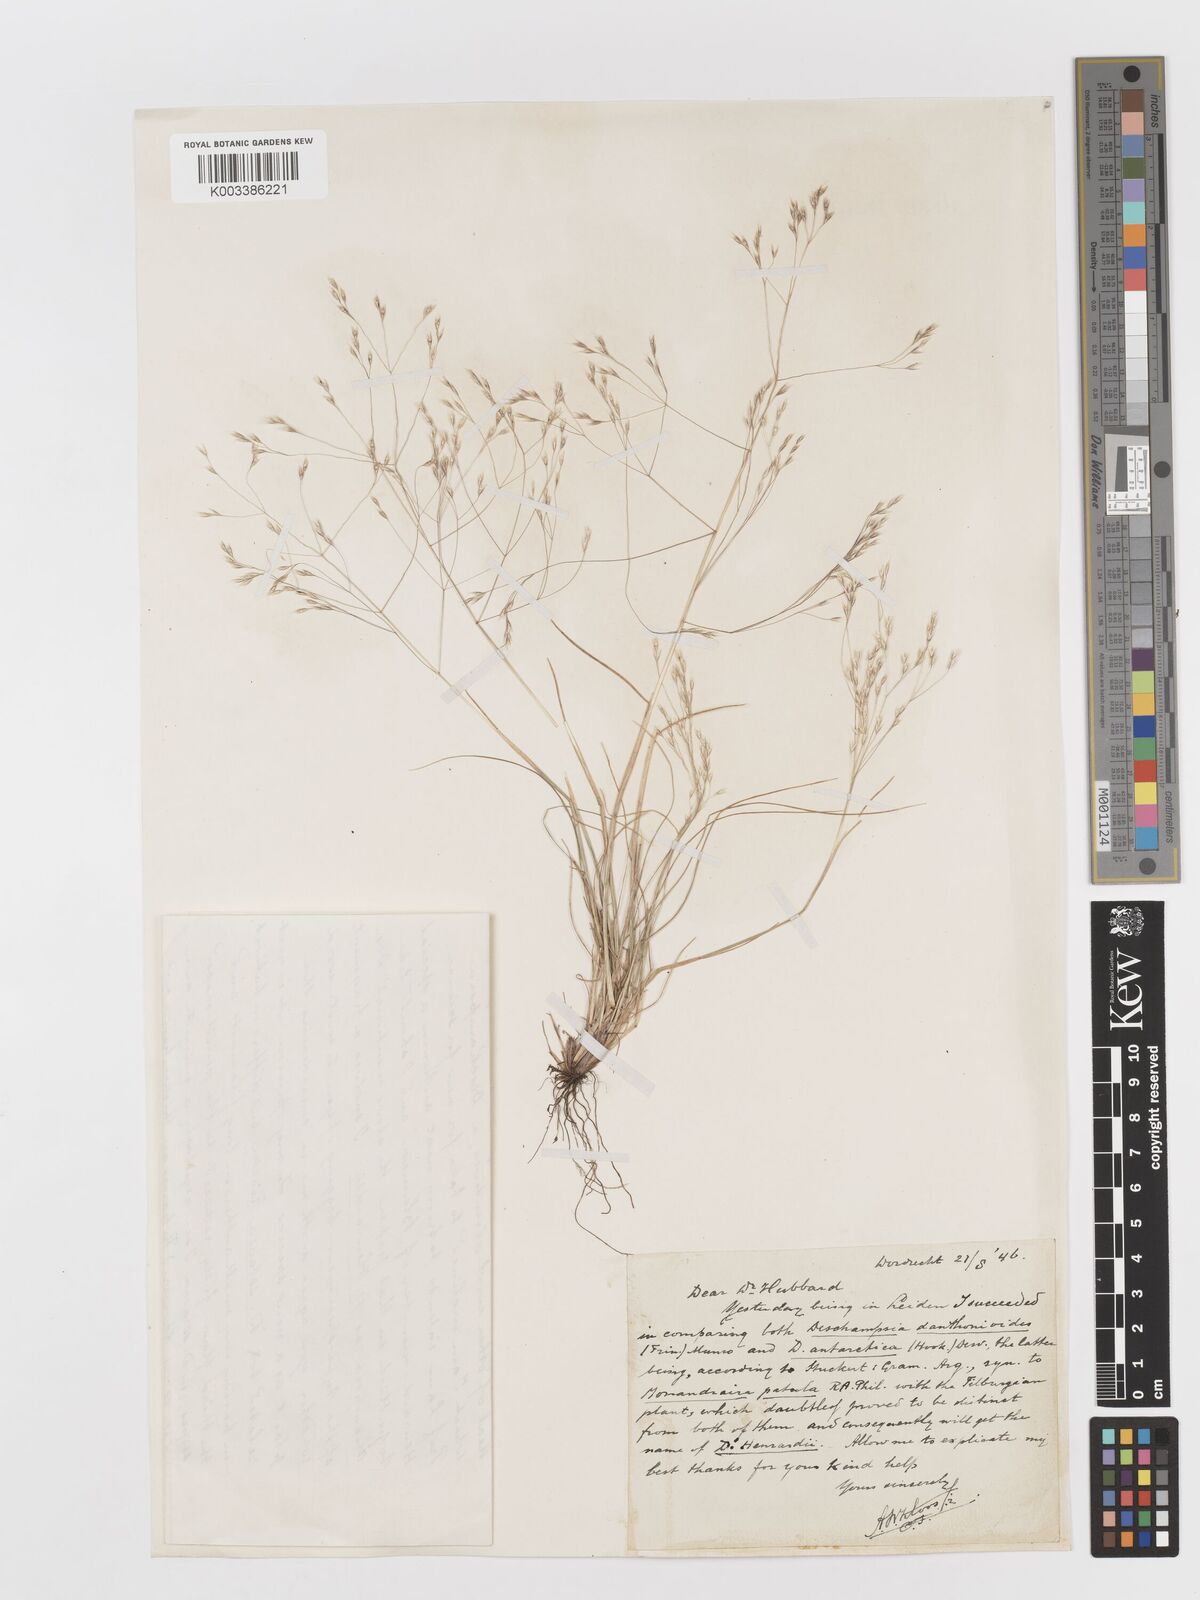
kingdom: Plantae
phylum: Tracheophyta
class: Liliopsida
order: Poales
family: Poaceae
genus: Deschampsia
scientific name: Deschampsia
